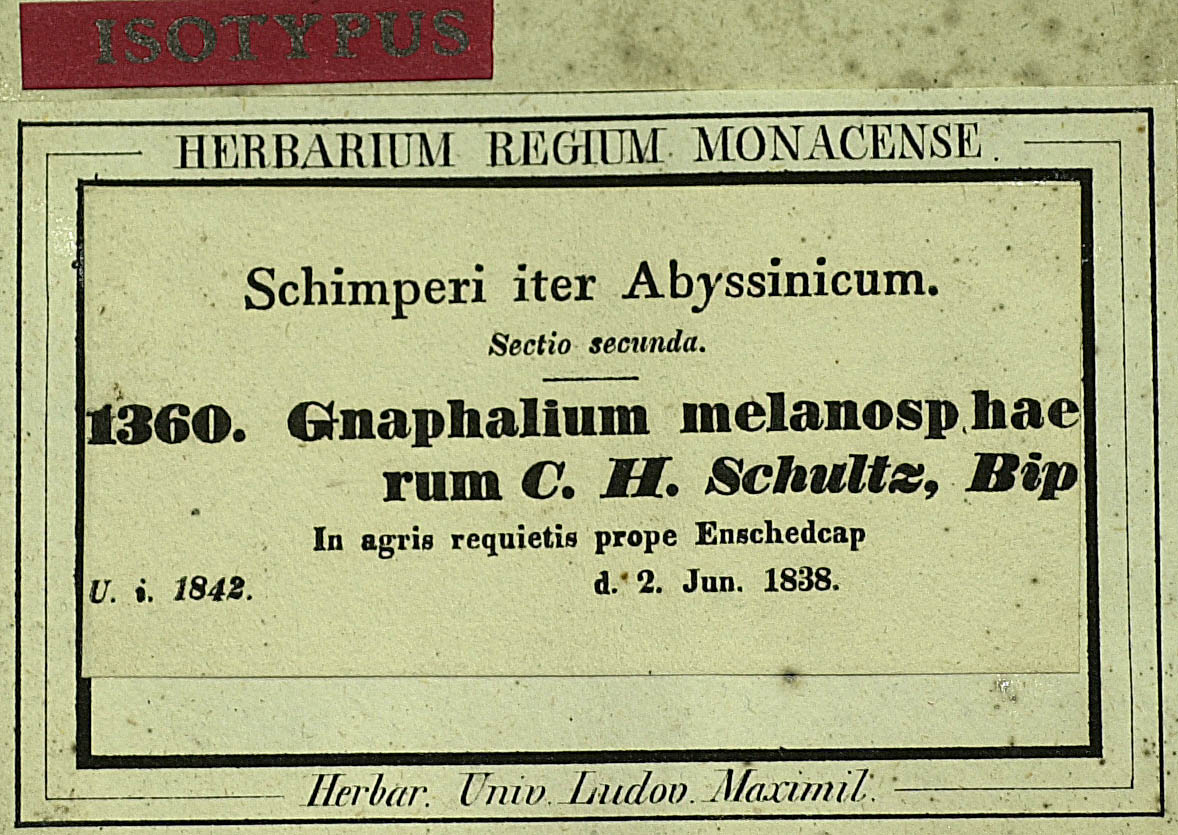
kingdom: Plantae
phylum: Tracheophyta
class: Magnoliopsida
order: Asterales
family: Asteraceae
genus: Pseudognaphalium
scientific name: Pseudognaphalium melanosphaerum
